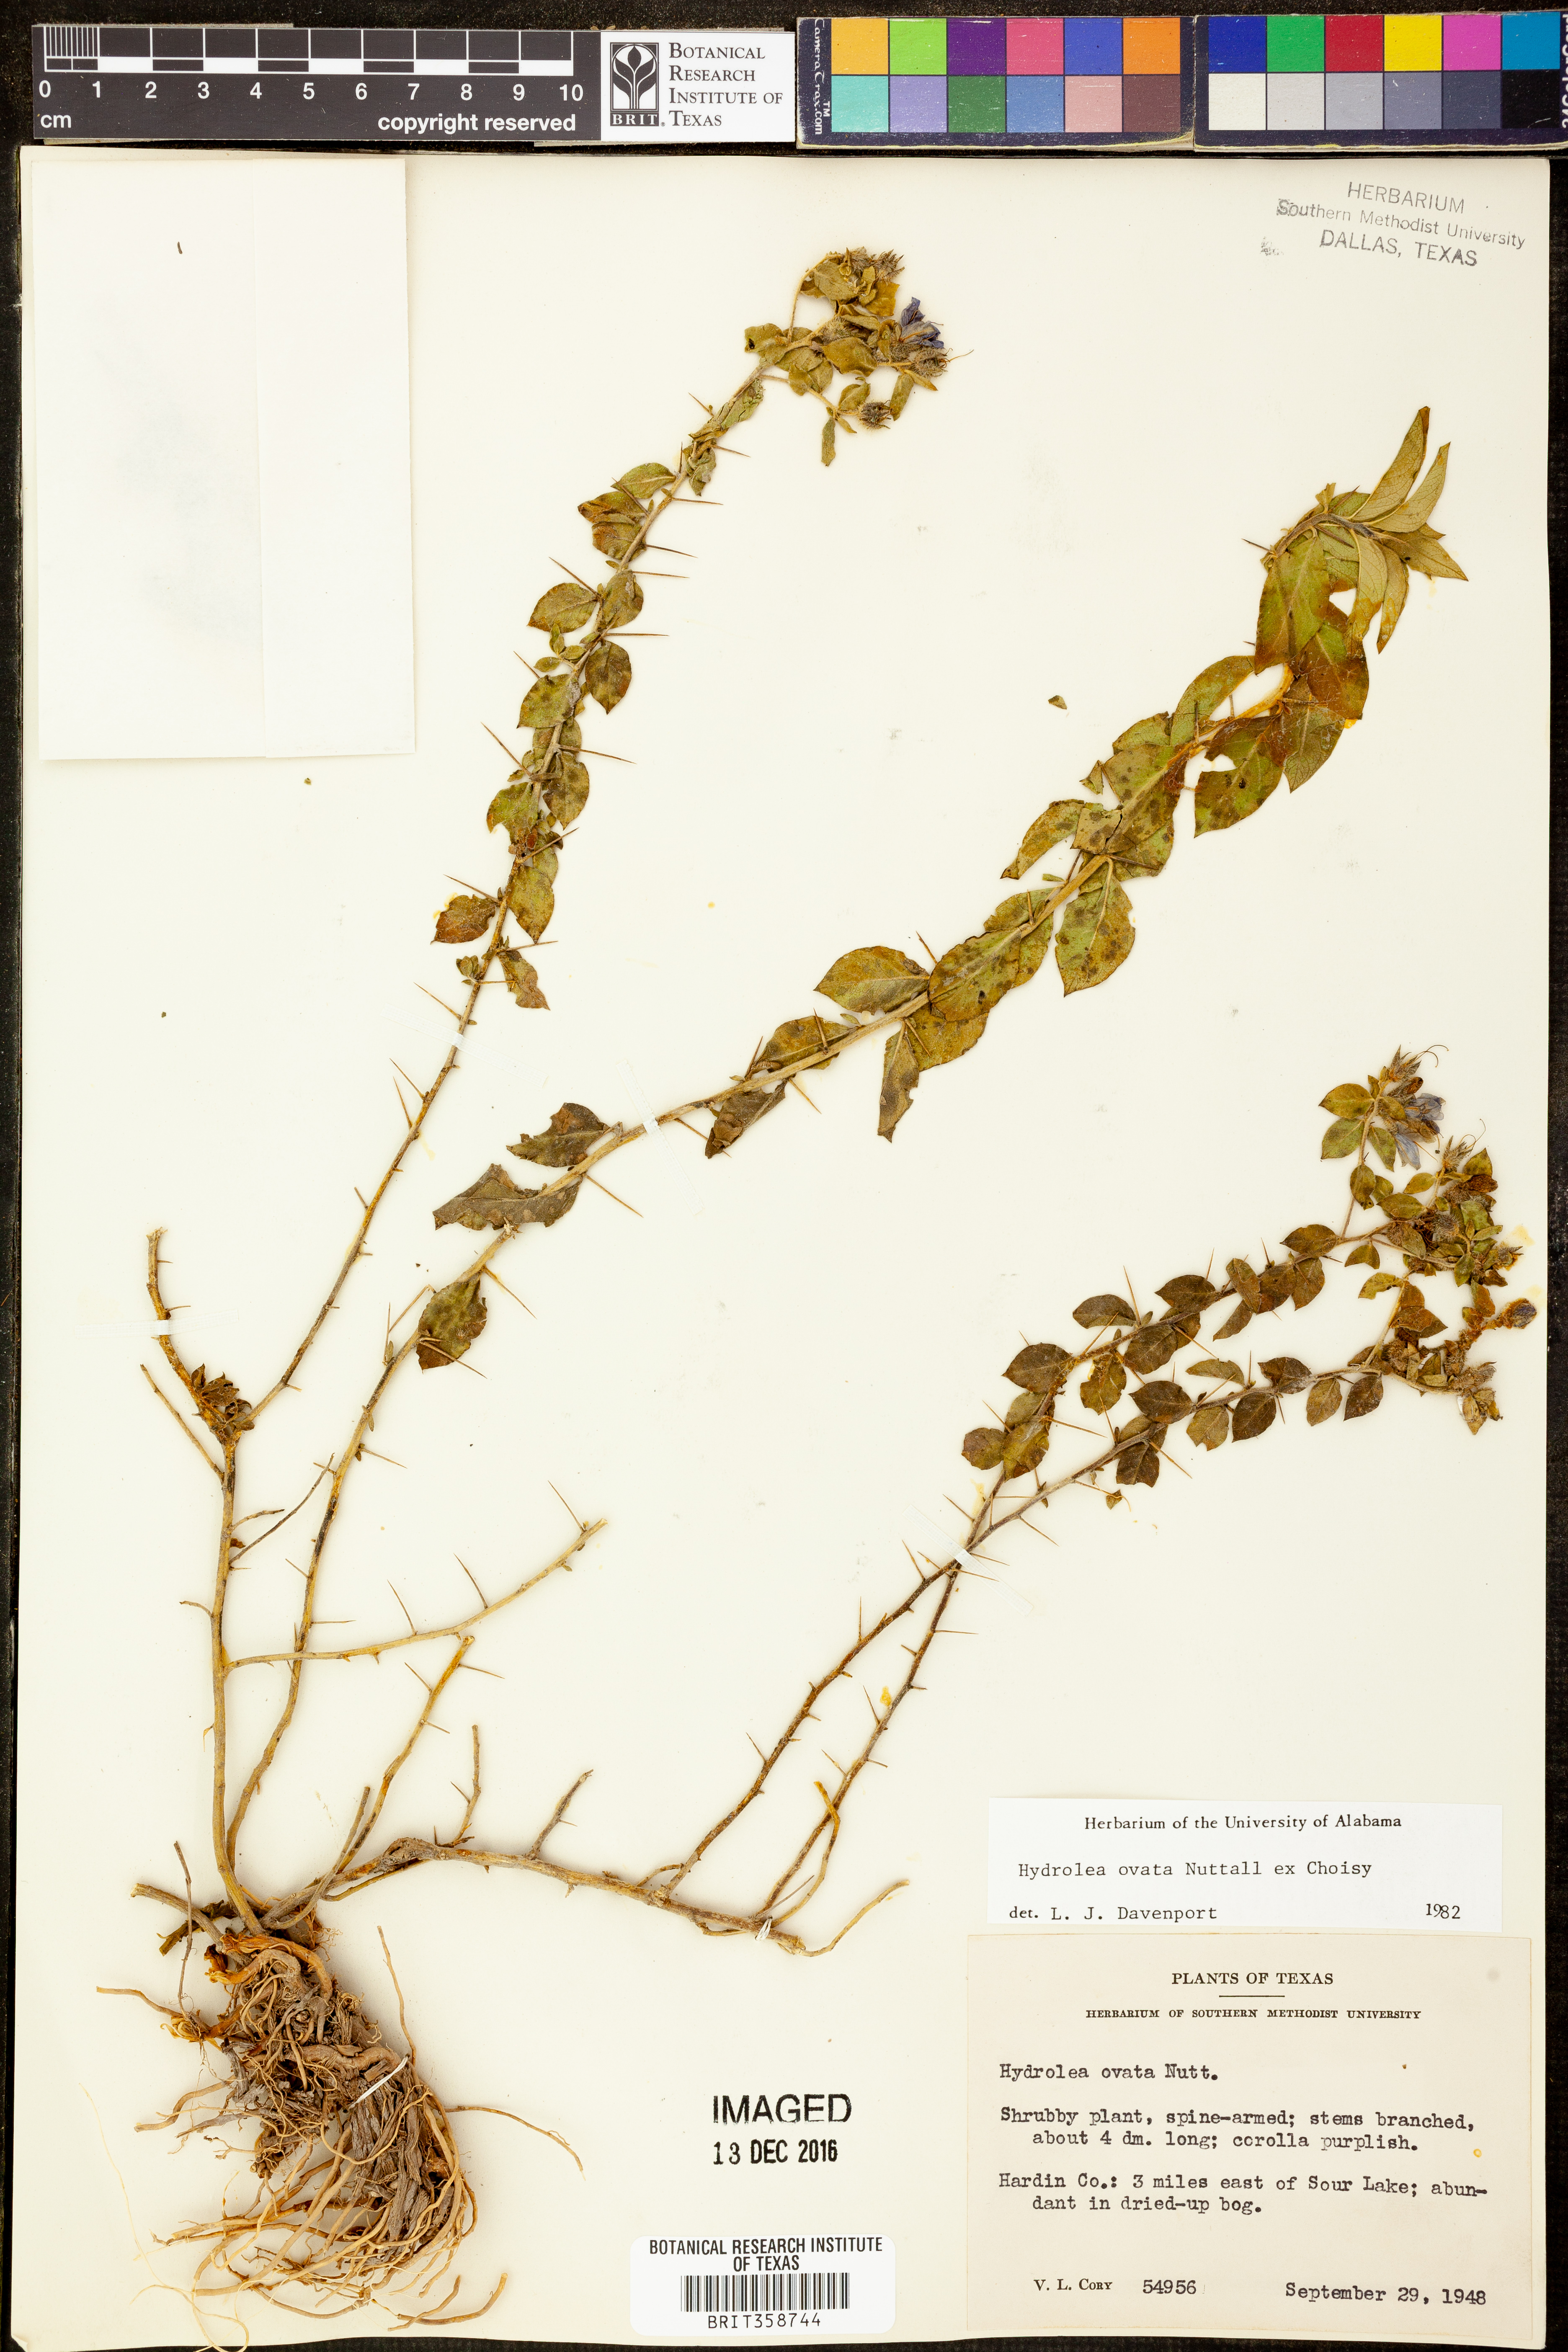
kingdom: Plantae
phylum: Tracheophyta
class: Magnoliopsida
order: Solanales
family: Hydroleaceae
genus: Hydrolea
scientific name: Hydrolea ovata
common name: Ovate false fiddleleaf
